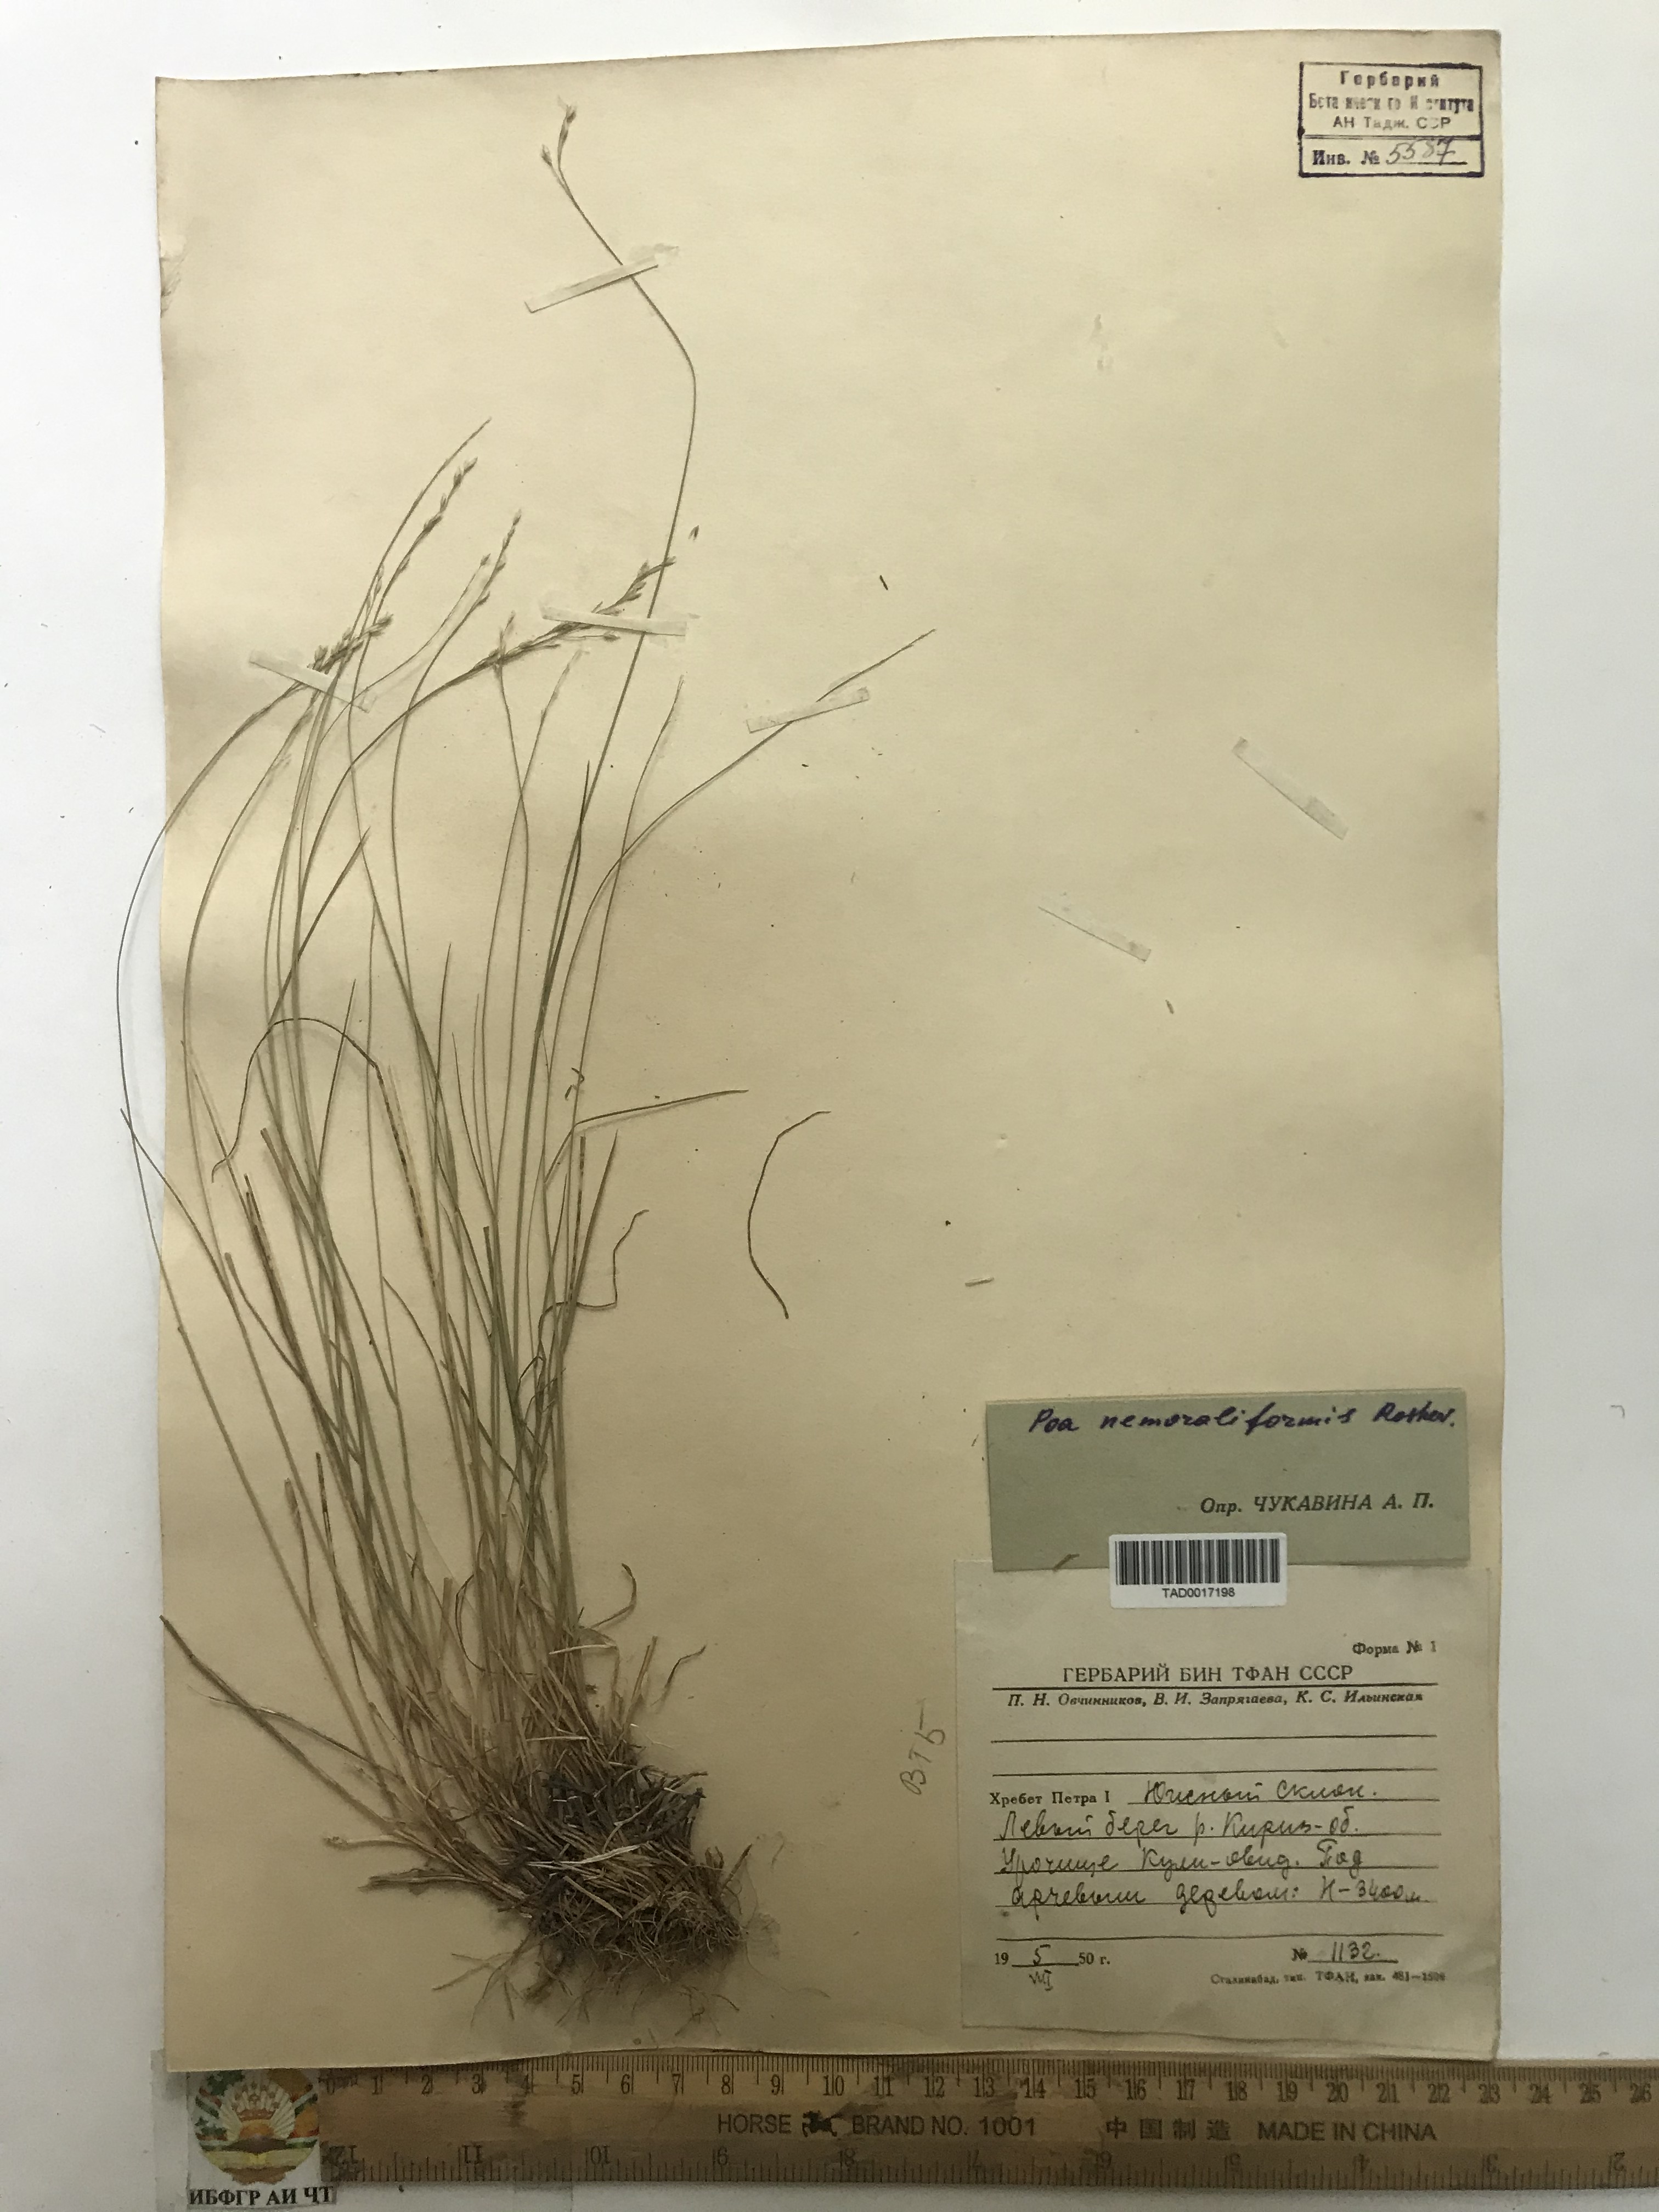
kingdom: Plantae
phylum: Tracheophyta
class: Liliopsida
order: Poales
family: Poaceae
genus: Poa
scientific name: Poa urssulensis
